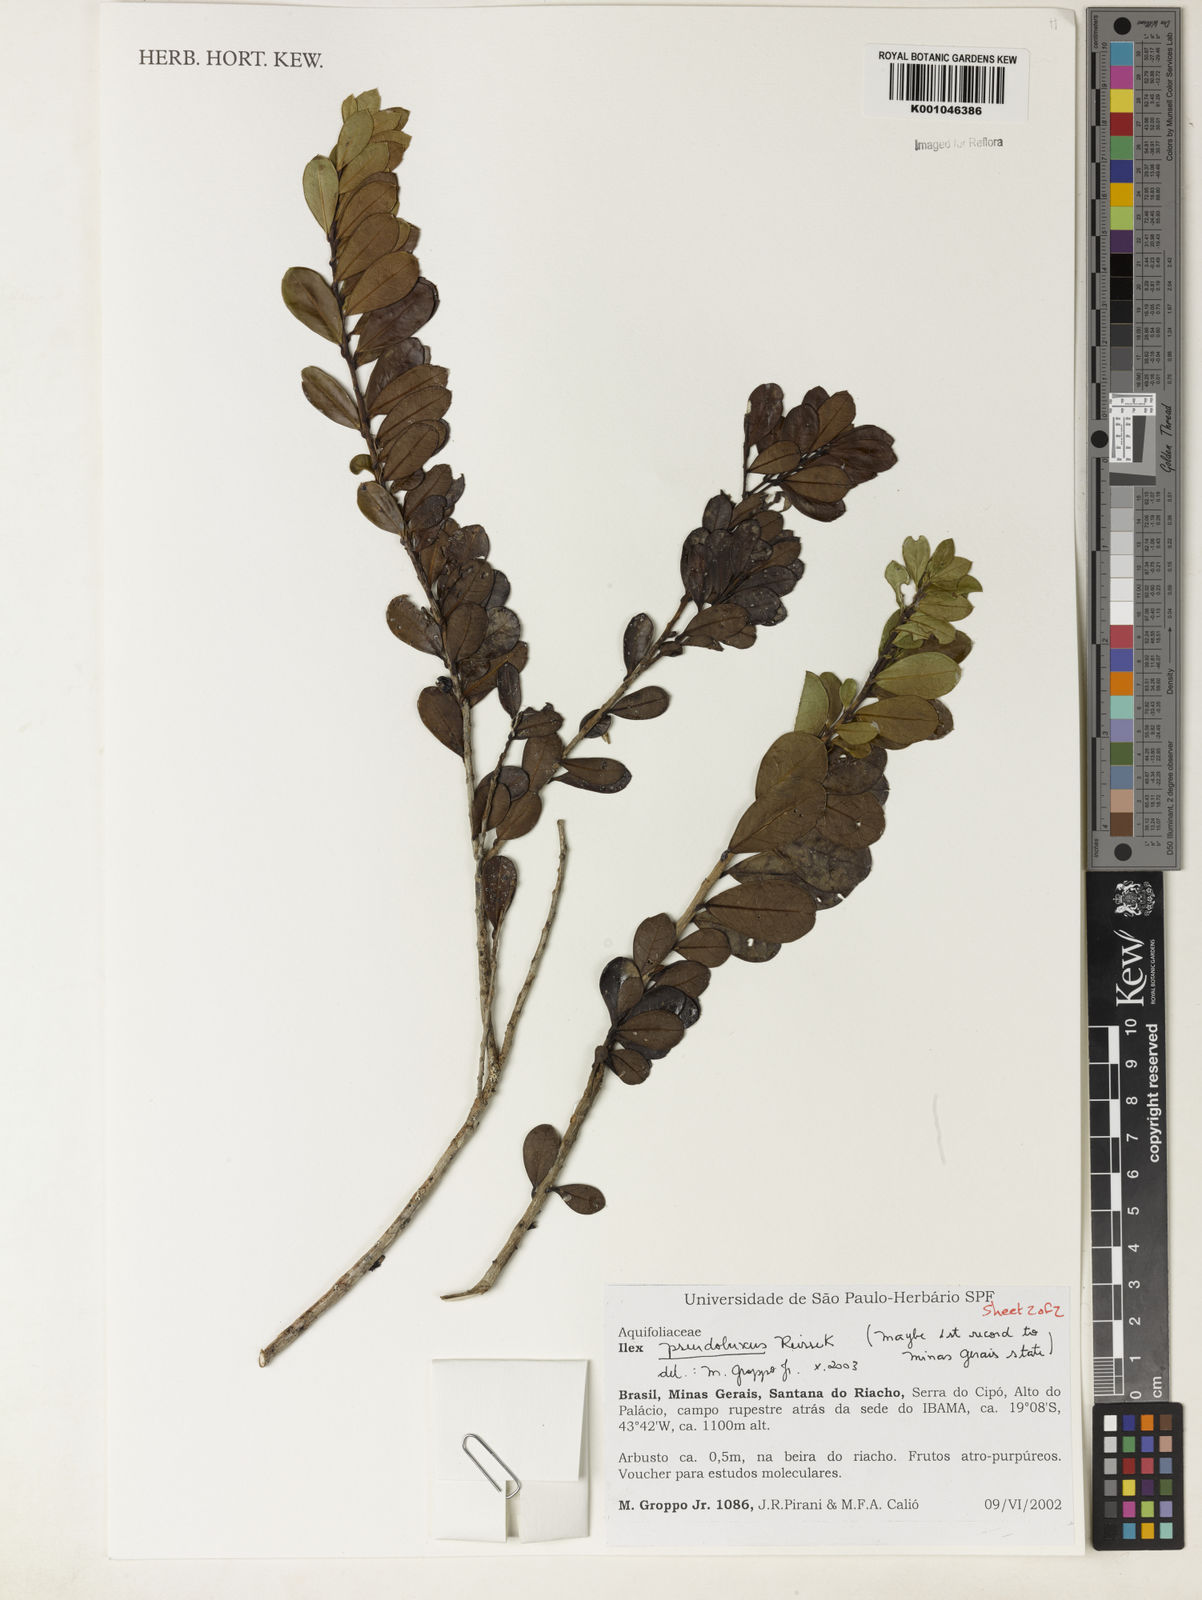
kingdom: Plantae
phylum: Tracheophyta
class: Magnoliopsida
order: Aquifoliales
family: Aquifoliaceae
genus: Ilex
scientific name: Ilex pseudobuxus
